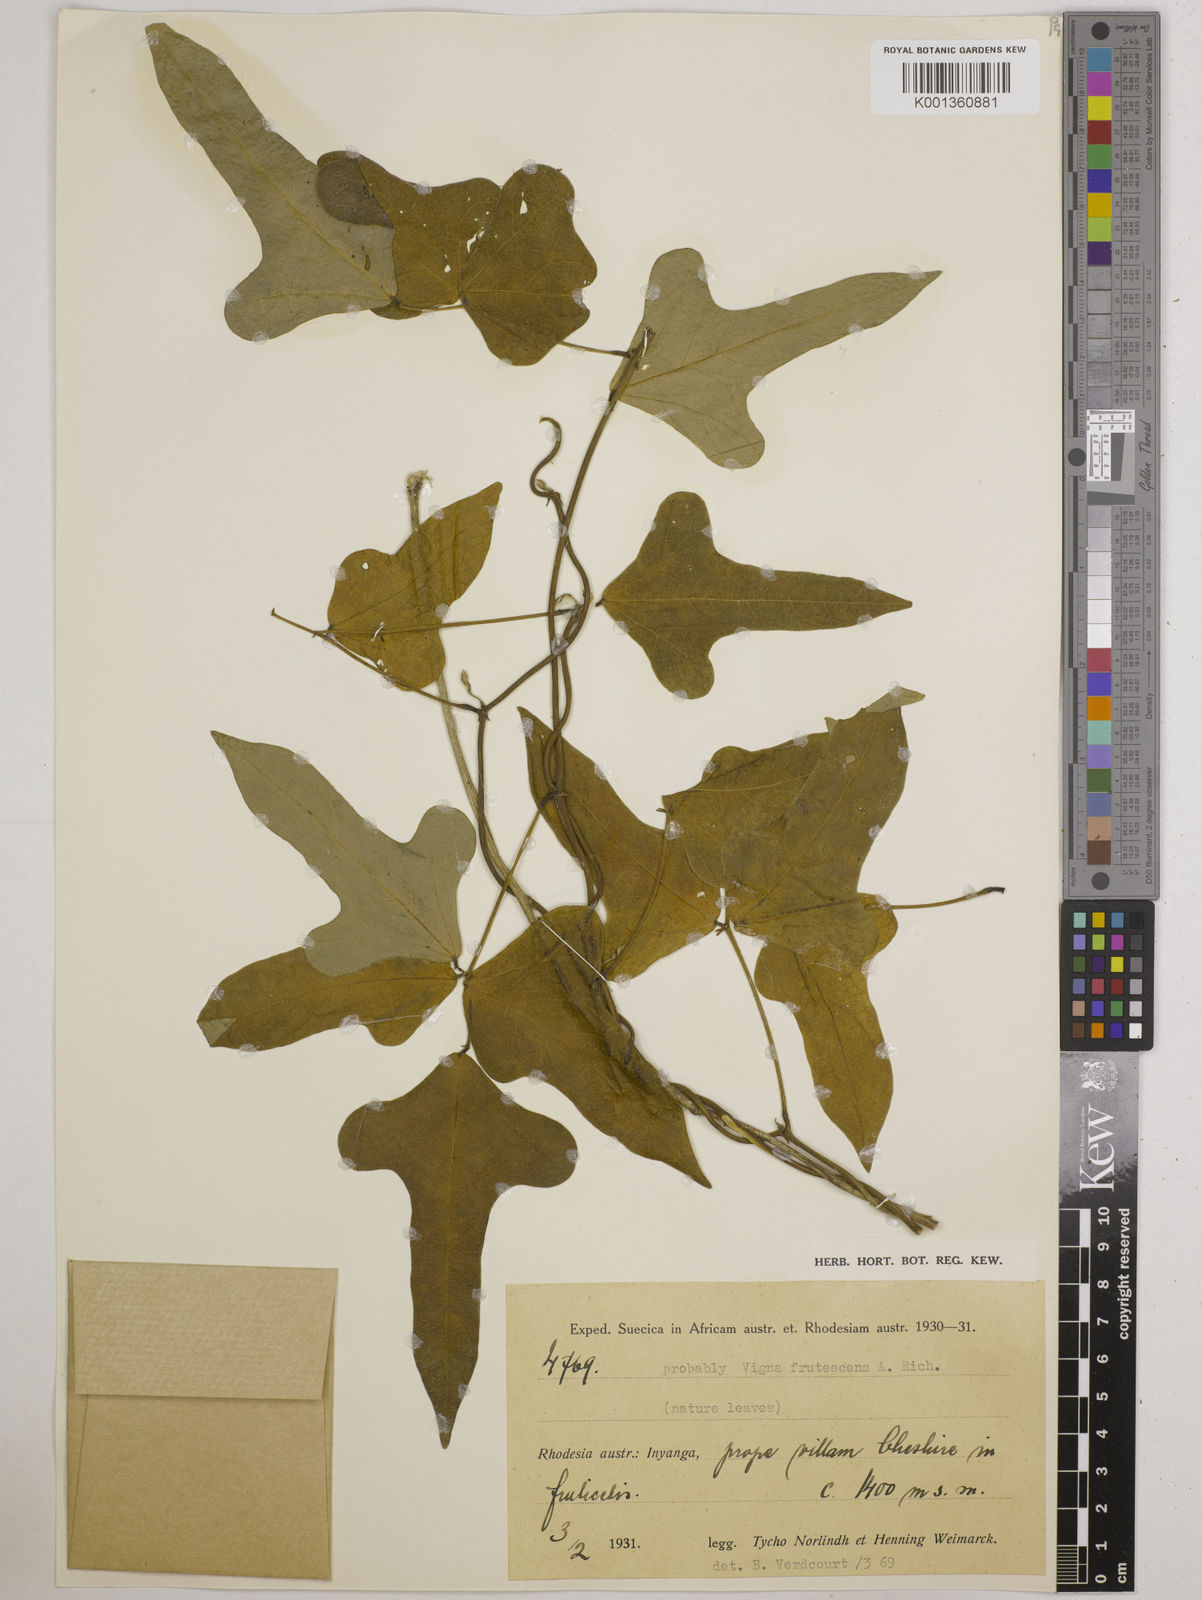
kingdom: Plantae
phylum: Tracheophyta
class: Magnoliopsida
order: Fabales
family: Fabaceae
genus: Vigna
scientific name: Vigna
